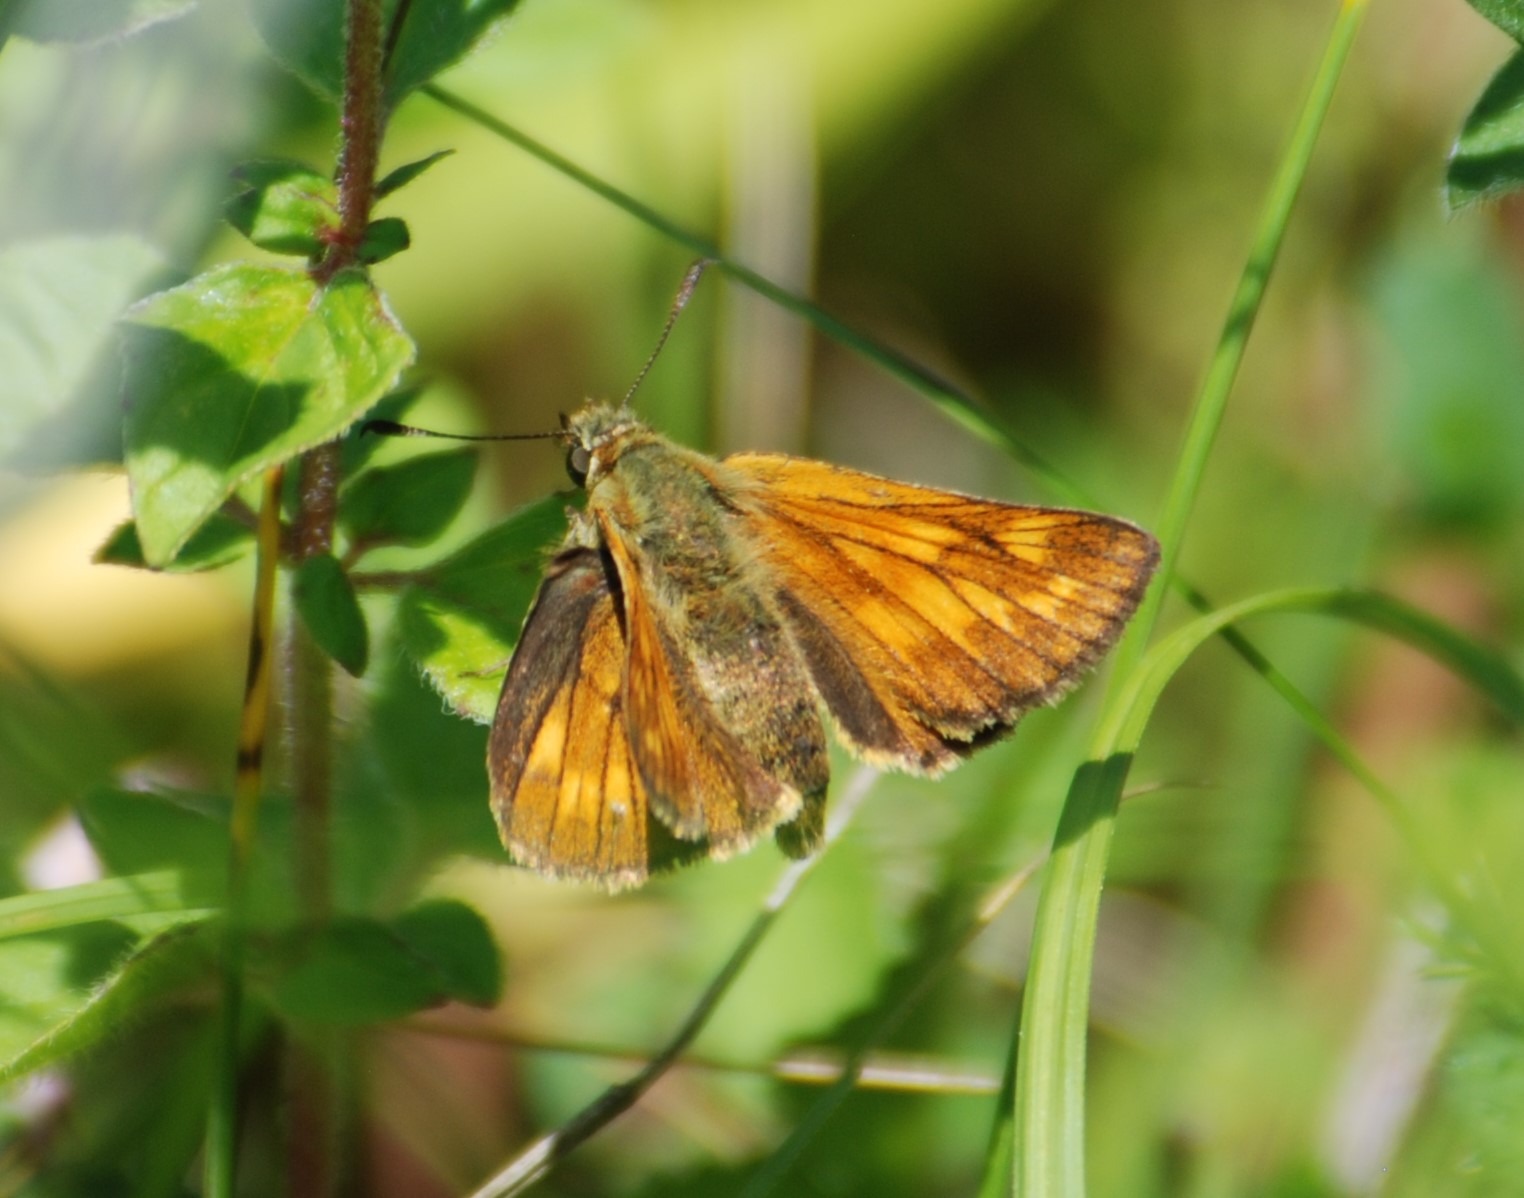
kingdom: Animalia
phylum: Arthropoda
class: Insecta
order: Lepidoptera
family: Hesperiidae
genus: Ochlodes
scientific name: Ochlodes venata
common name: Stor bredpande
